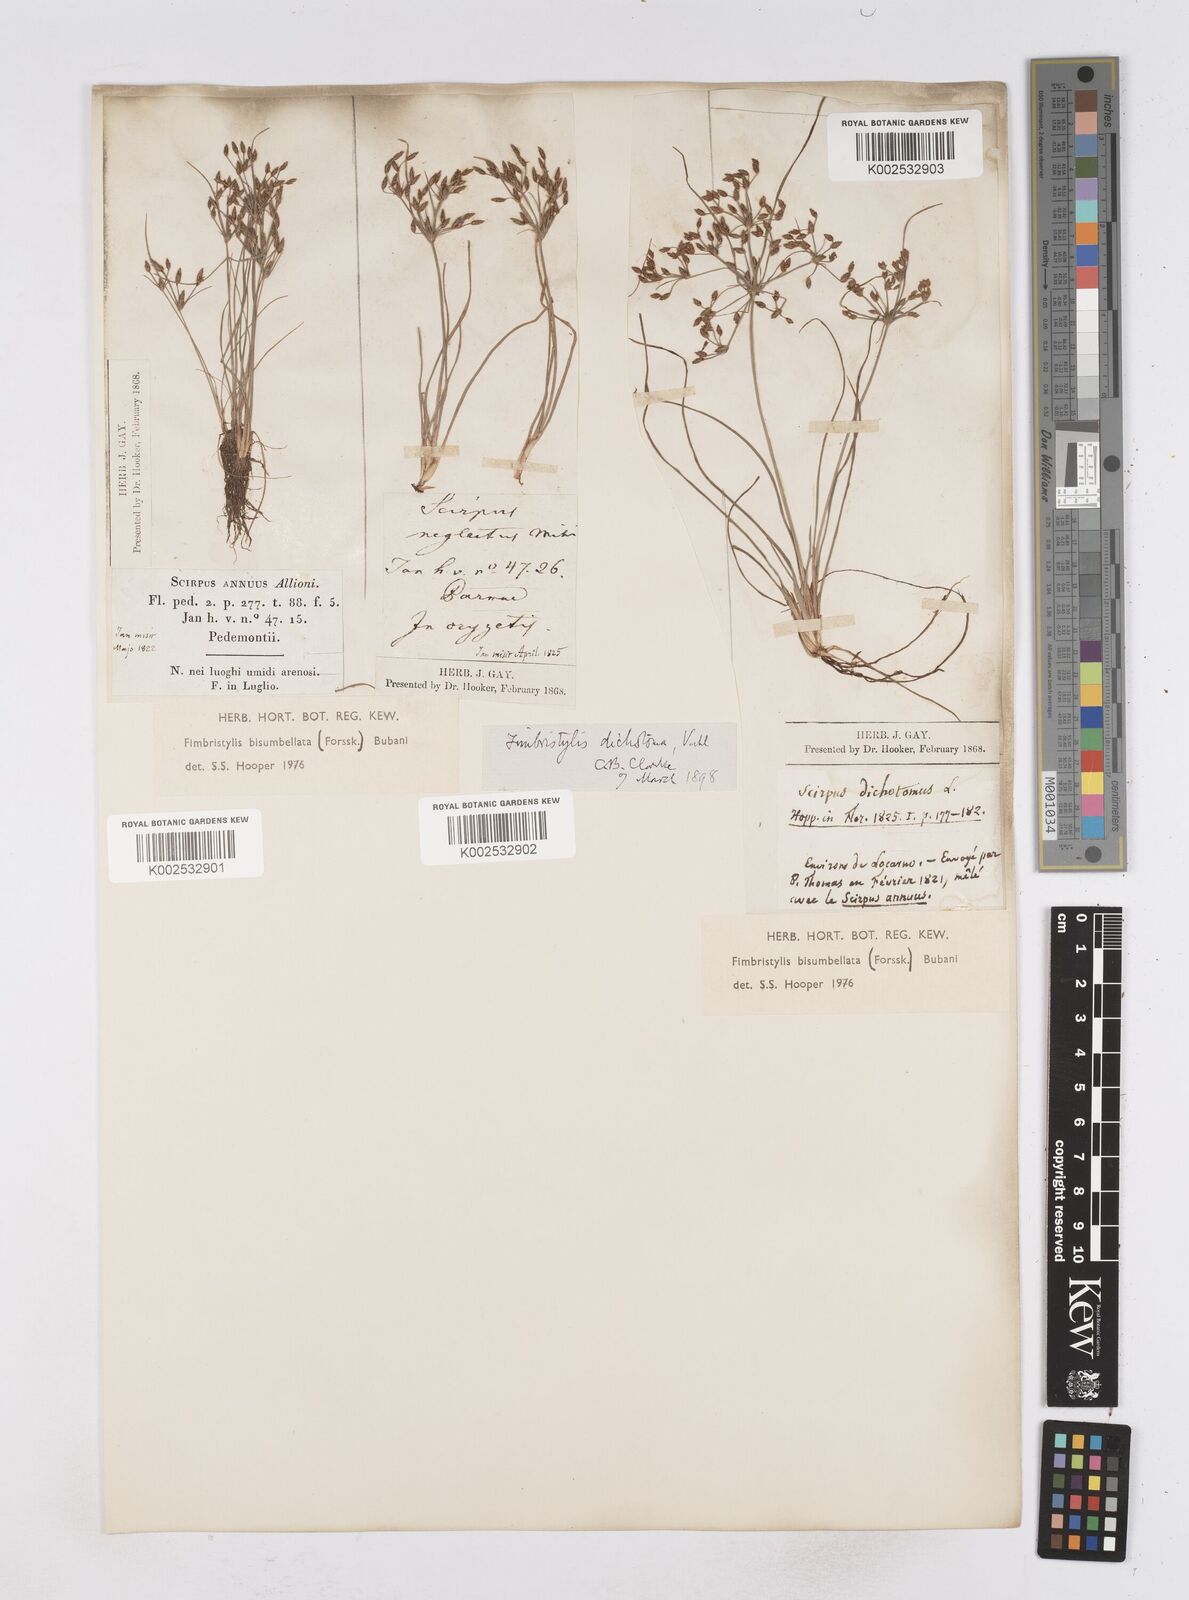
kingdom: Plantae
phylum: Tracheophyta
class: Liliopsida
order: Poales
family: Cyperaceae
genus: Fimbristylis
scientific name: Fimbristylis bisumbellata
